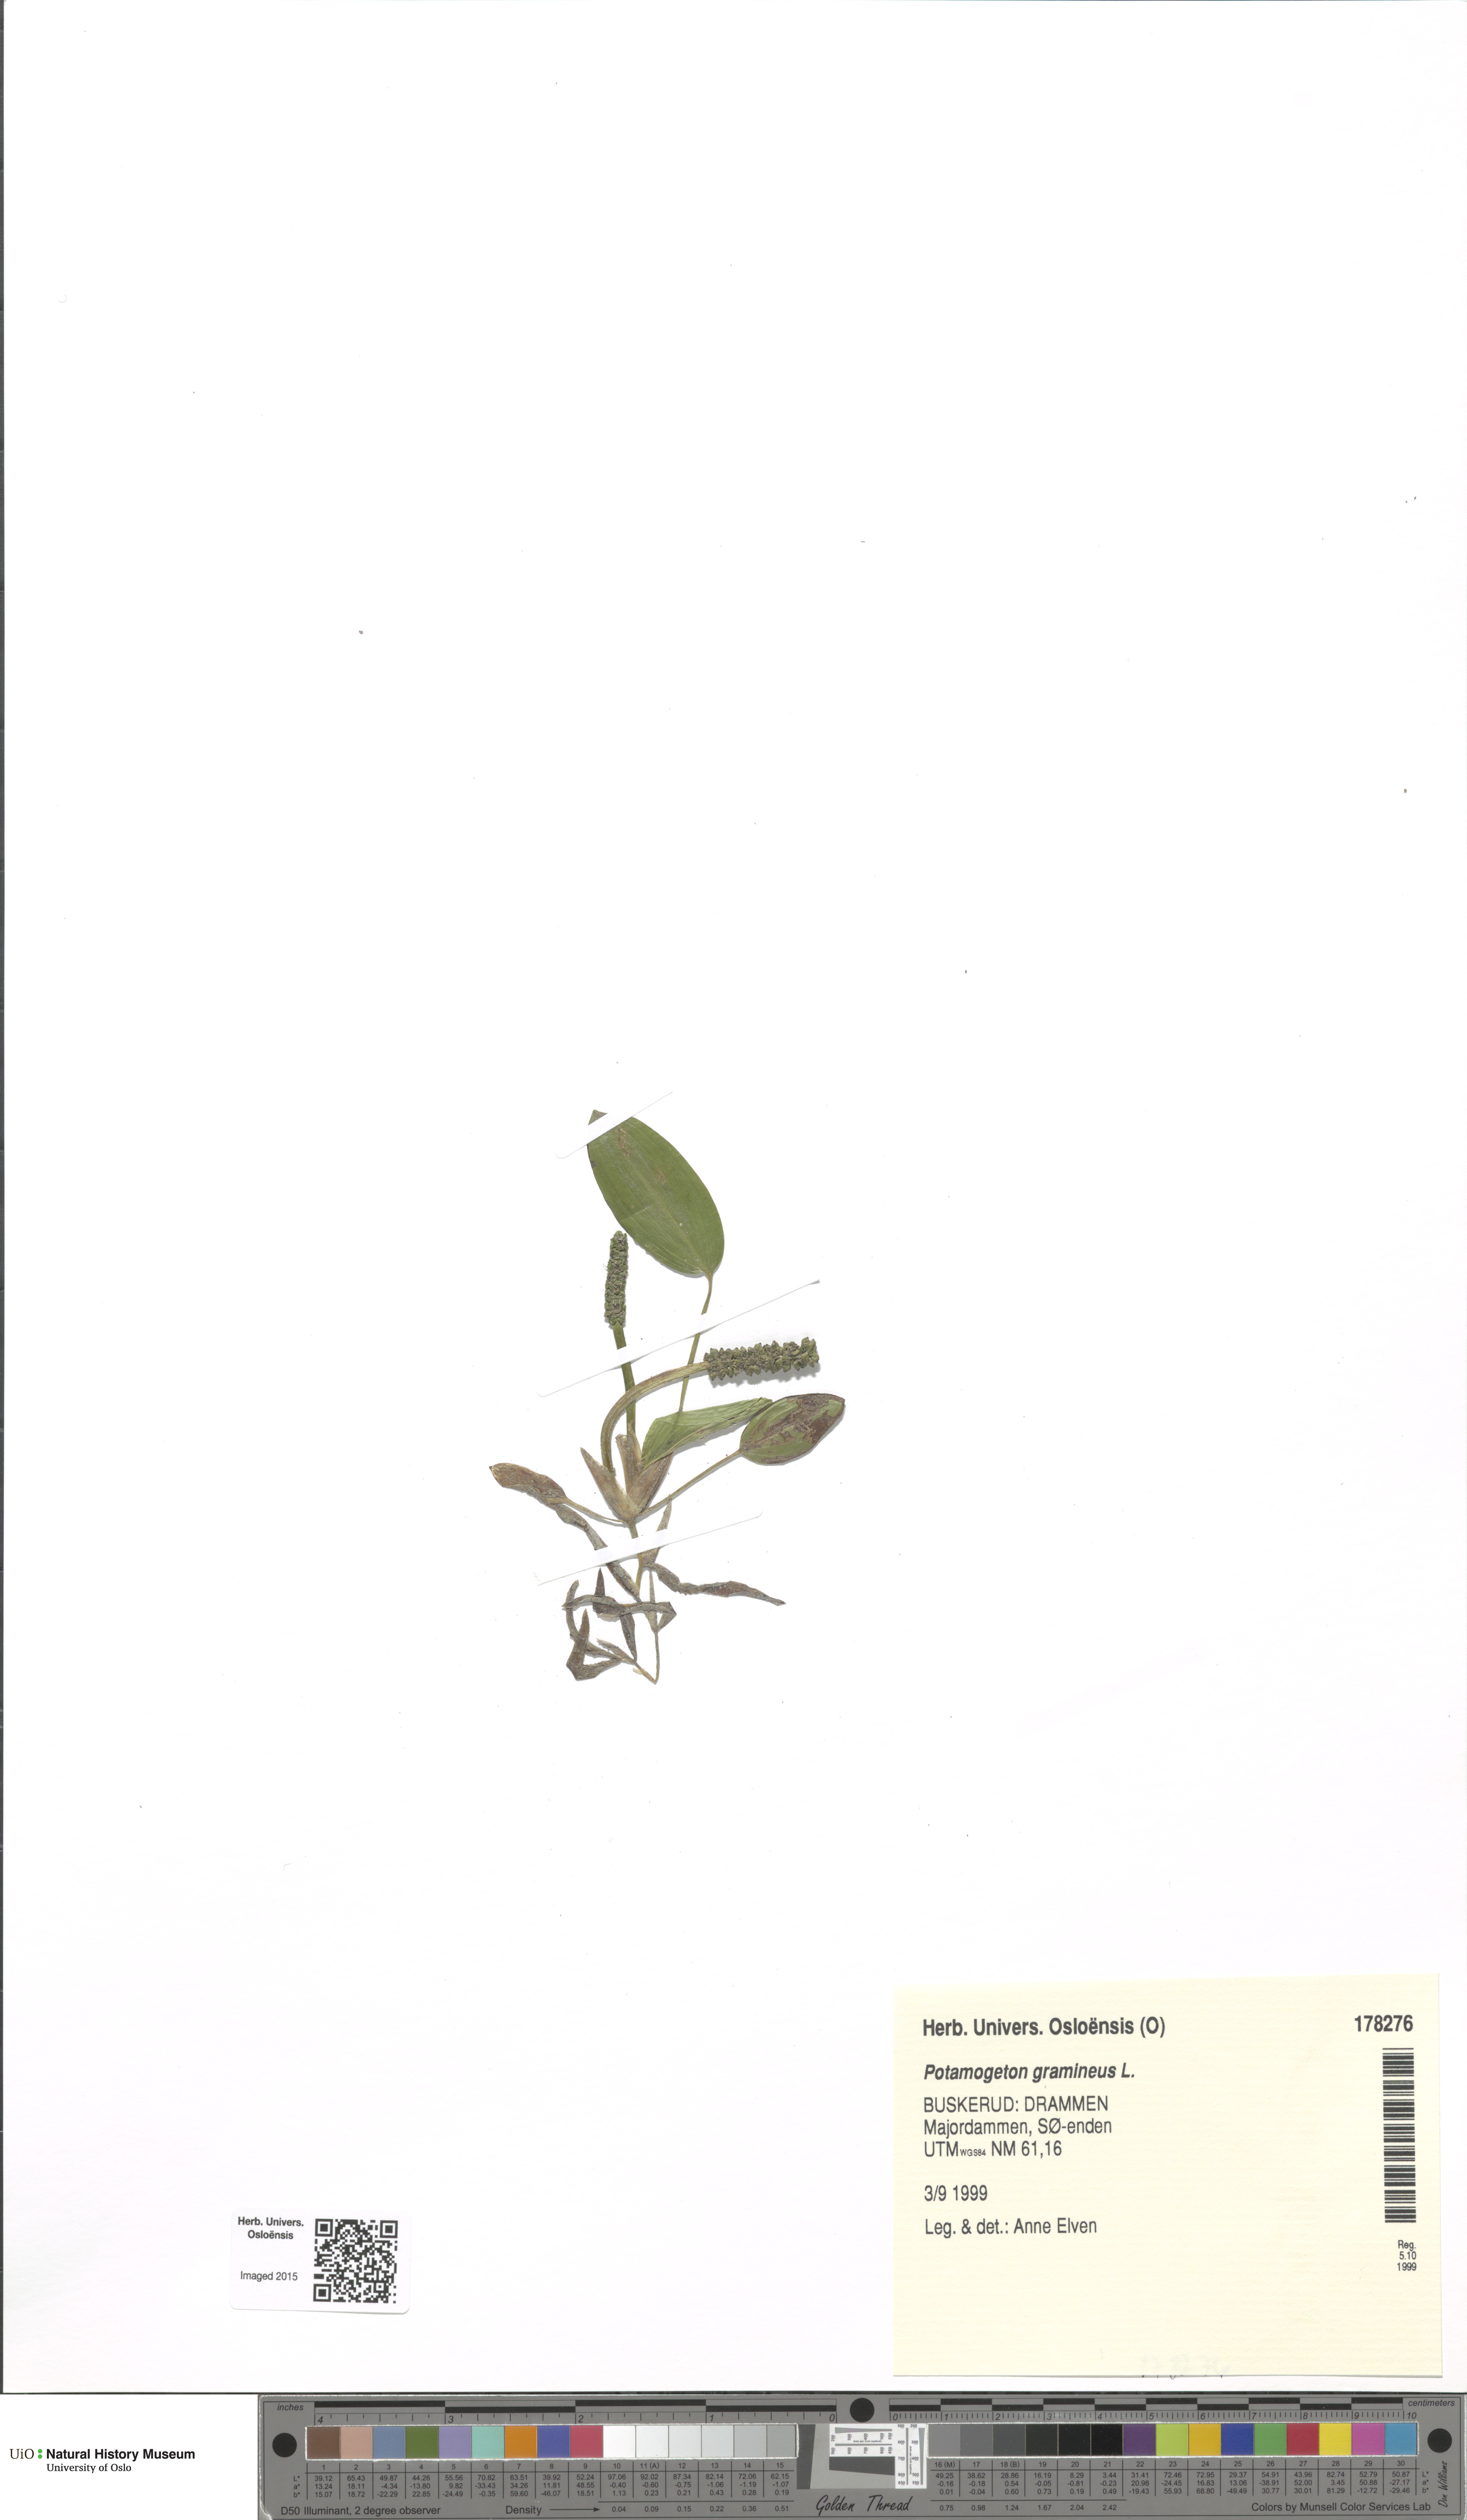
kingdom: Plantae
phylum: Tracheophyta
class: Liliopsida
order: Alismatales
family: Potamogetonaceae
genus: Potamogeton
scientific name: Potamogeton gramineus
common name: Various-leaved pondweed
